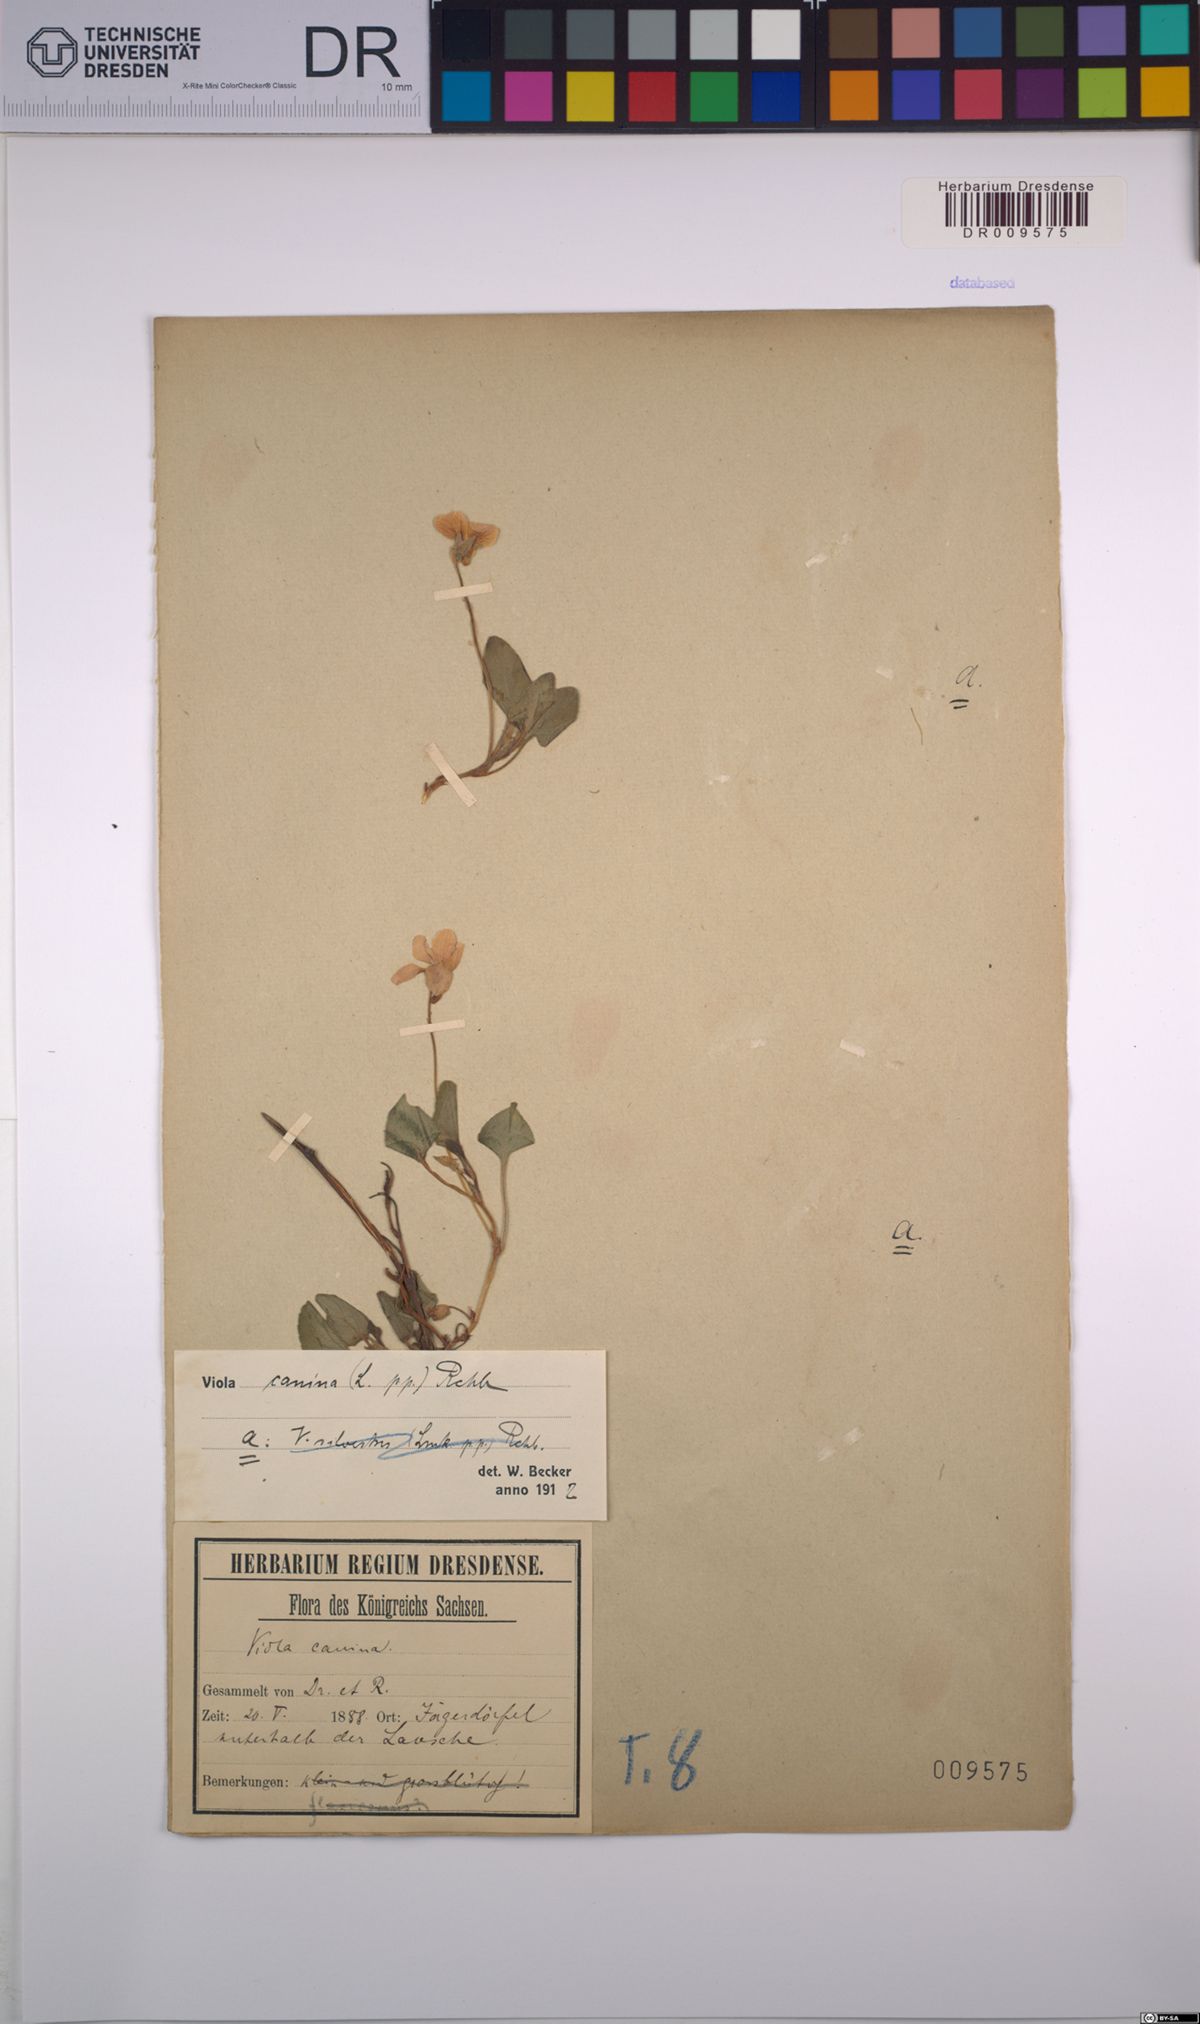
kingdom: Plantae
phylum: Tracheophyta
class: Magnoliopsida
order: Malpighiales
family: Violaceae
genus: Viola
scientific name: Viola canina
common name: Heath dog-violet
